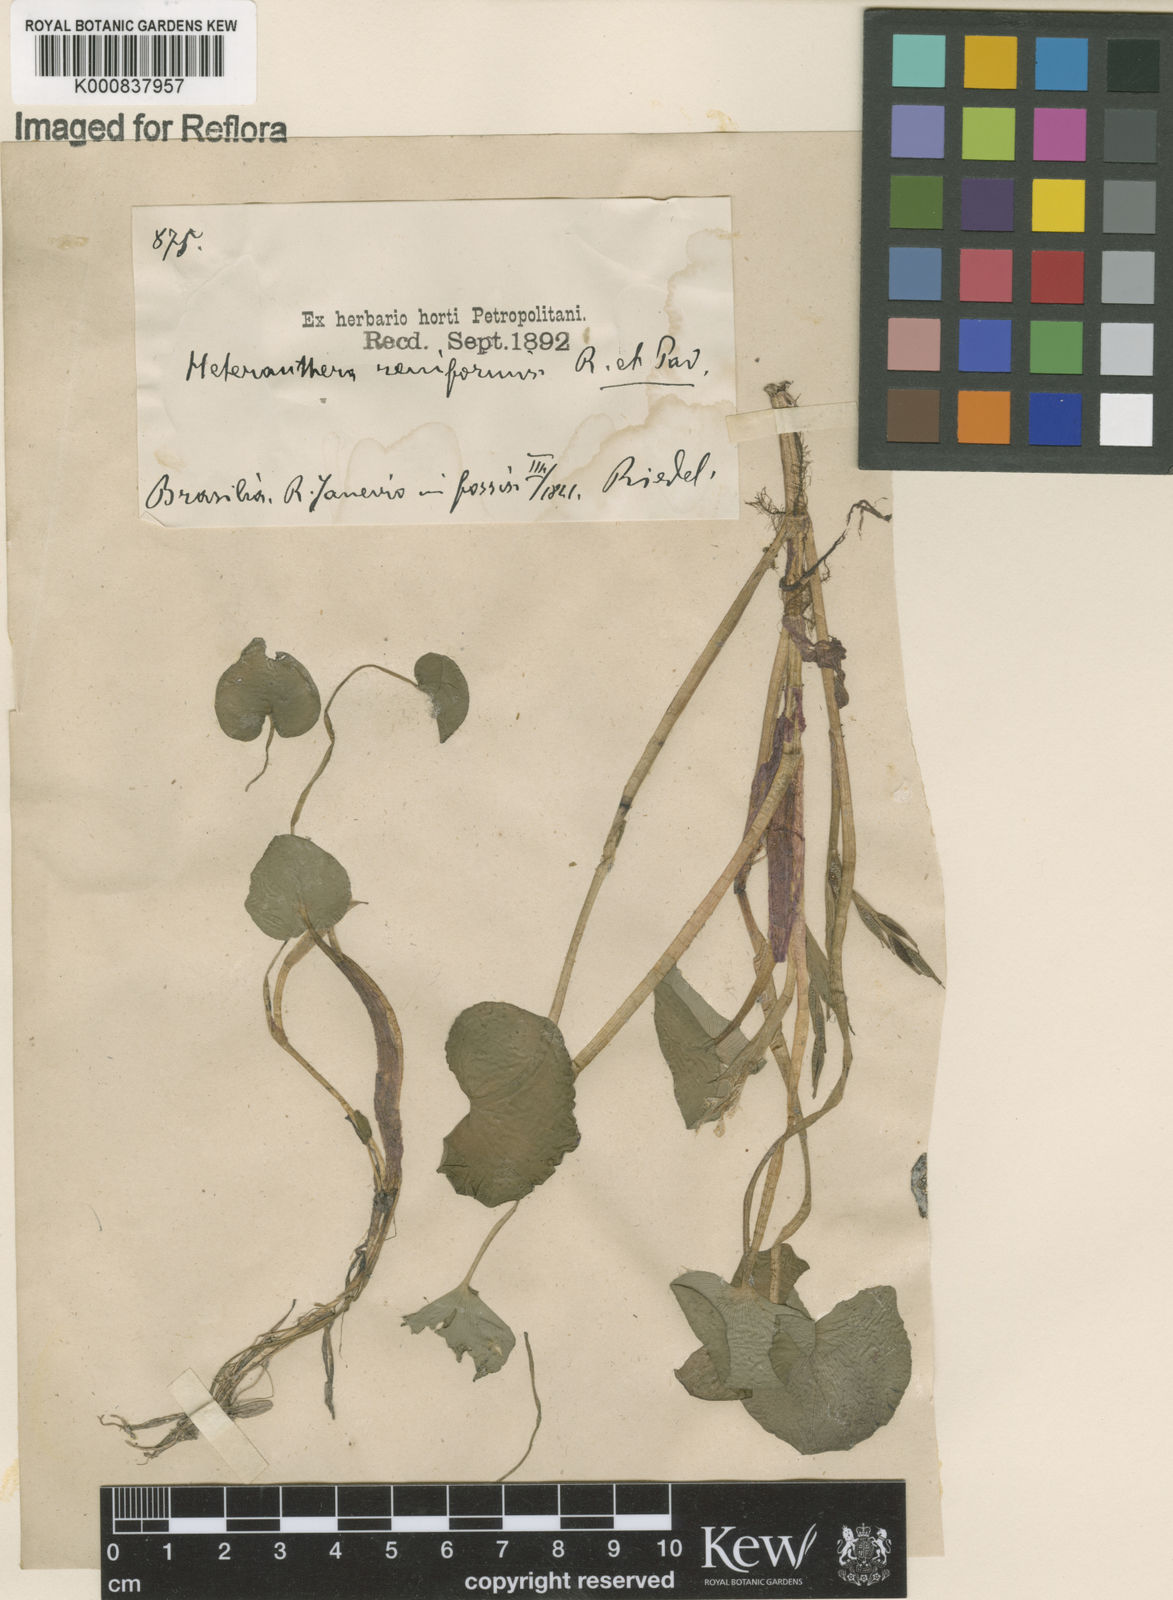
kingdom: Plantae
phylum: Tracheophyta
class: Liliopsida
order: Commelinales
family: Pontederiaceae
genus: Heteranthera
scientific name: Heteranthera reniformis
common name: Kidneyleaf mudplantain
